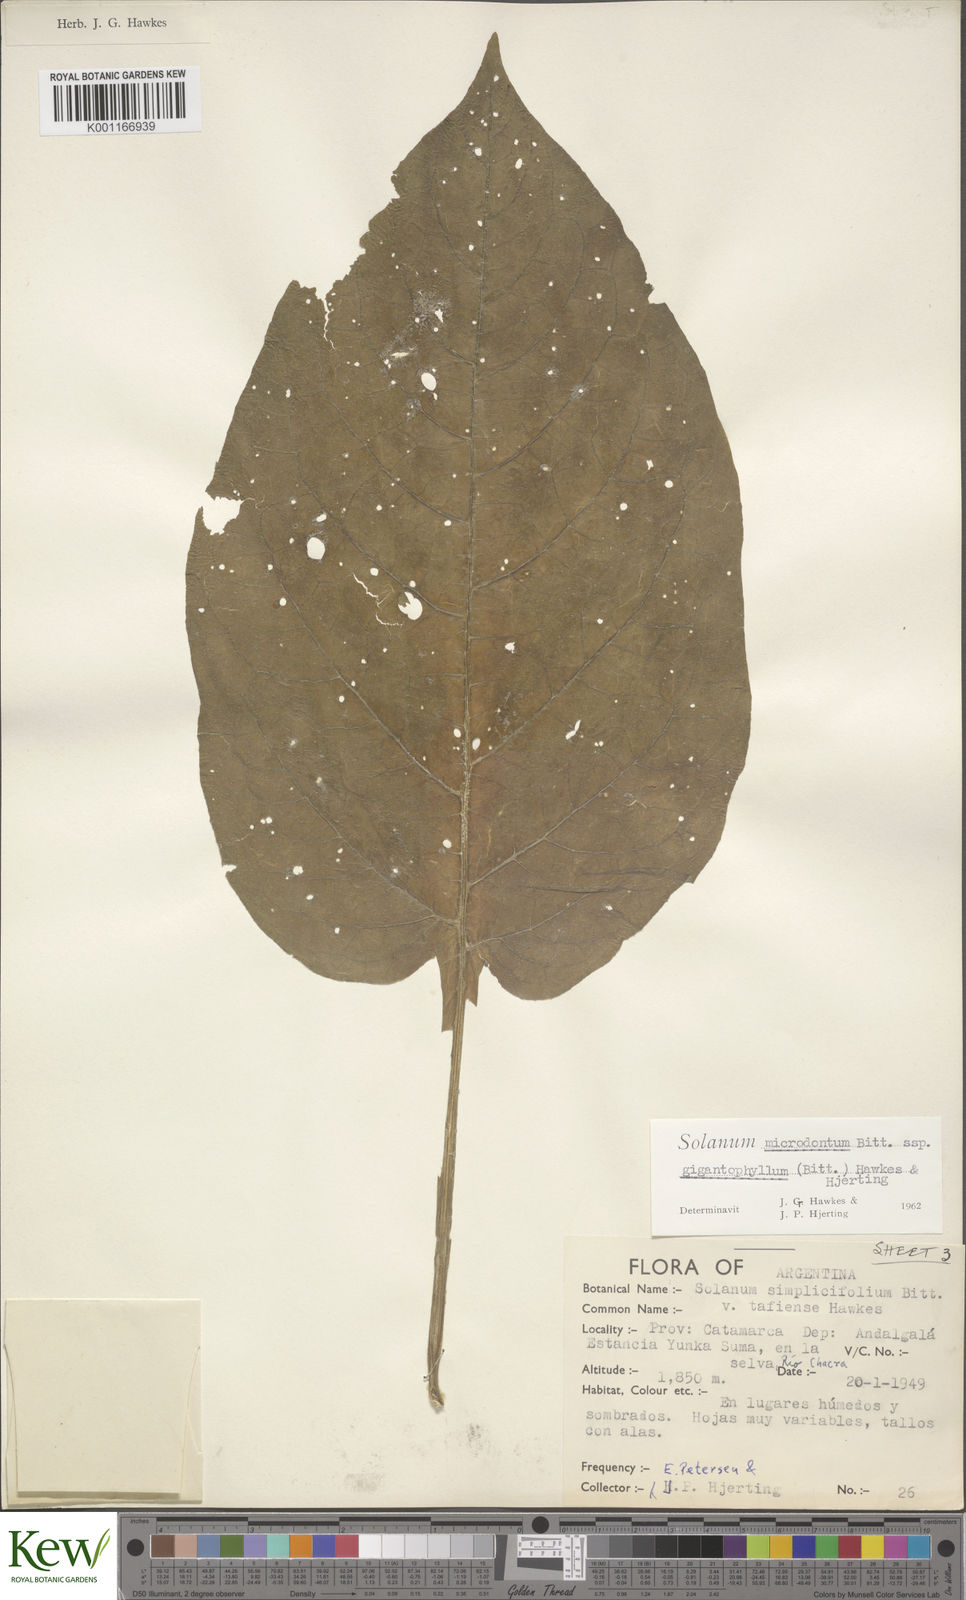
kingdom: Plantae
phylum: Tracheophyta
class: Magnoliopsida
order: Solanales
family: Solanaceae
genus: Solanum
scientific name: Solanum microdontum
